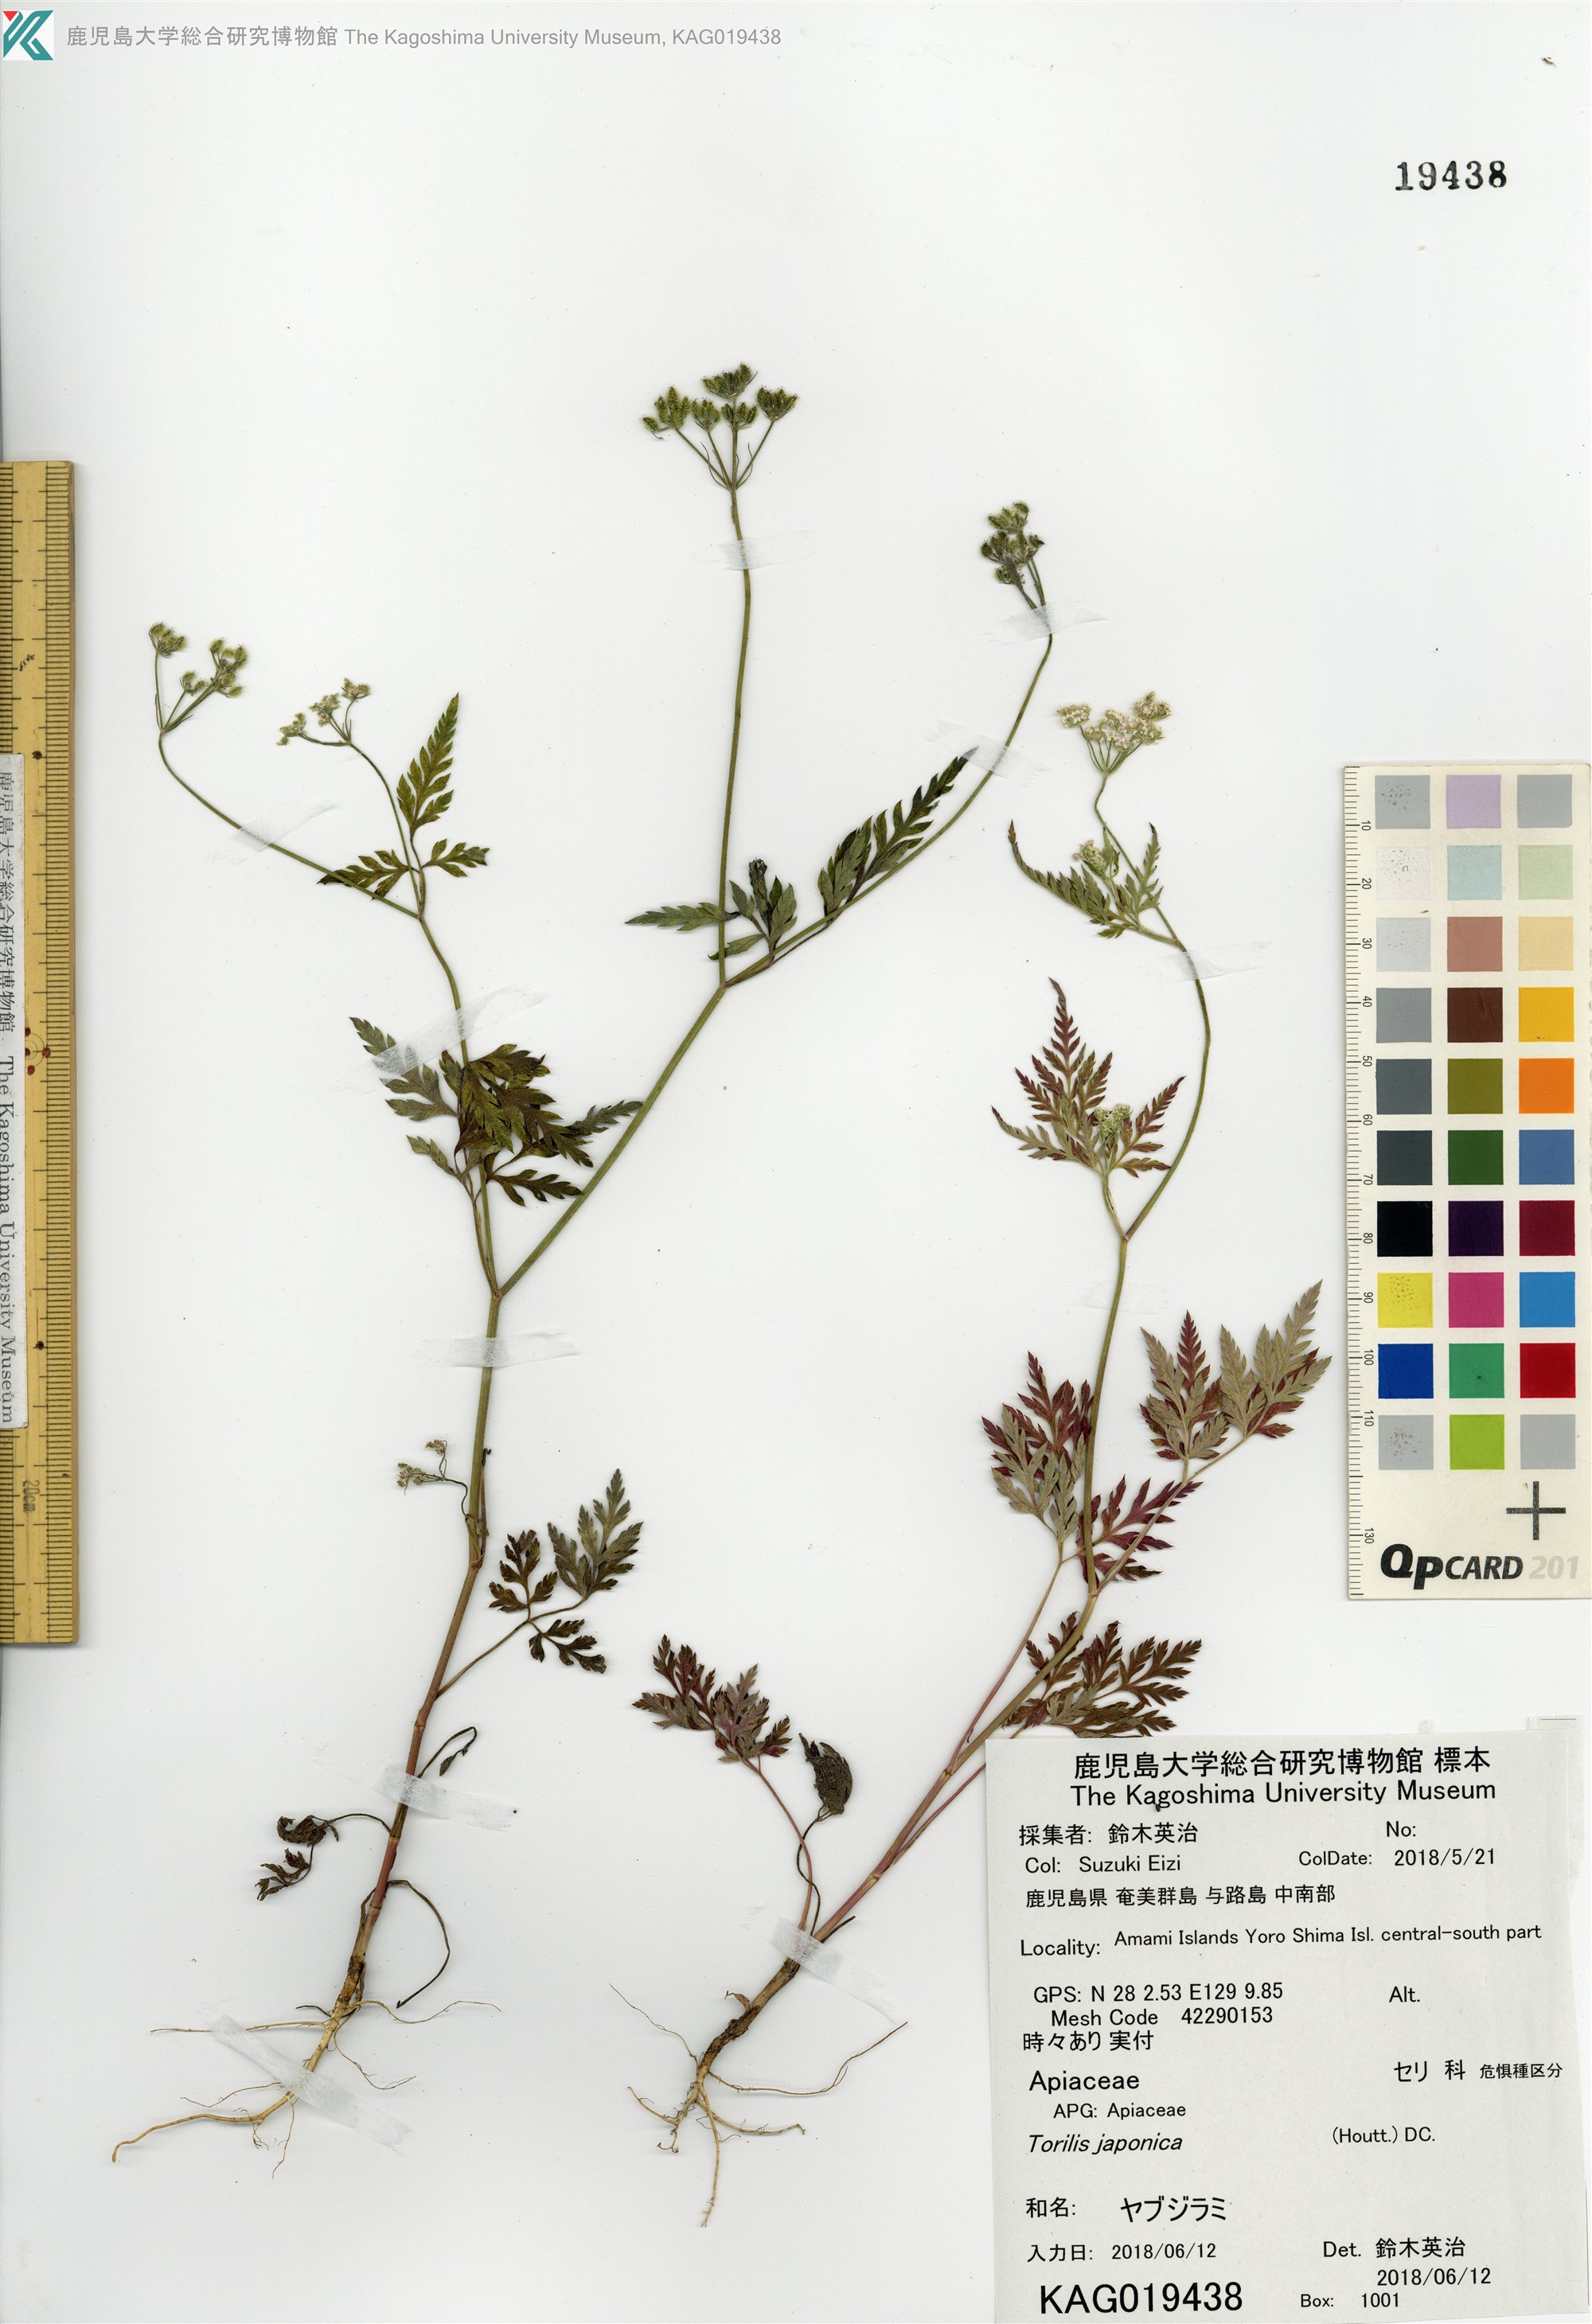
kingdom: Plantae
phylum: Tracheophyta
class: Magnoliopsida
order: Apiales
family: Apiaceae
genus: Torilis
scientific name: Torilis japonica
